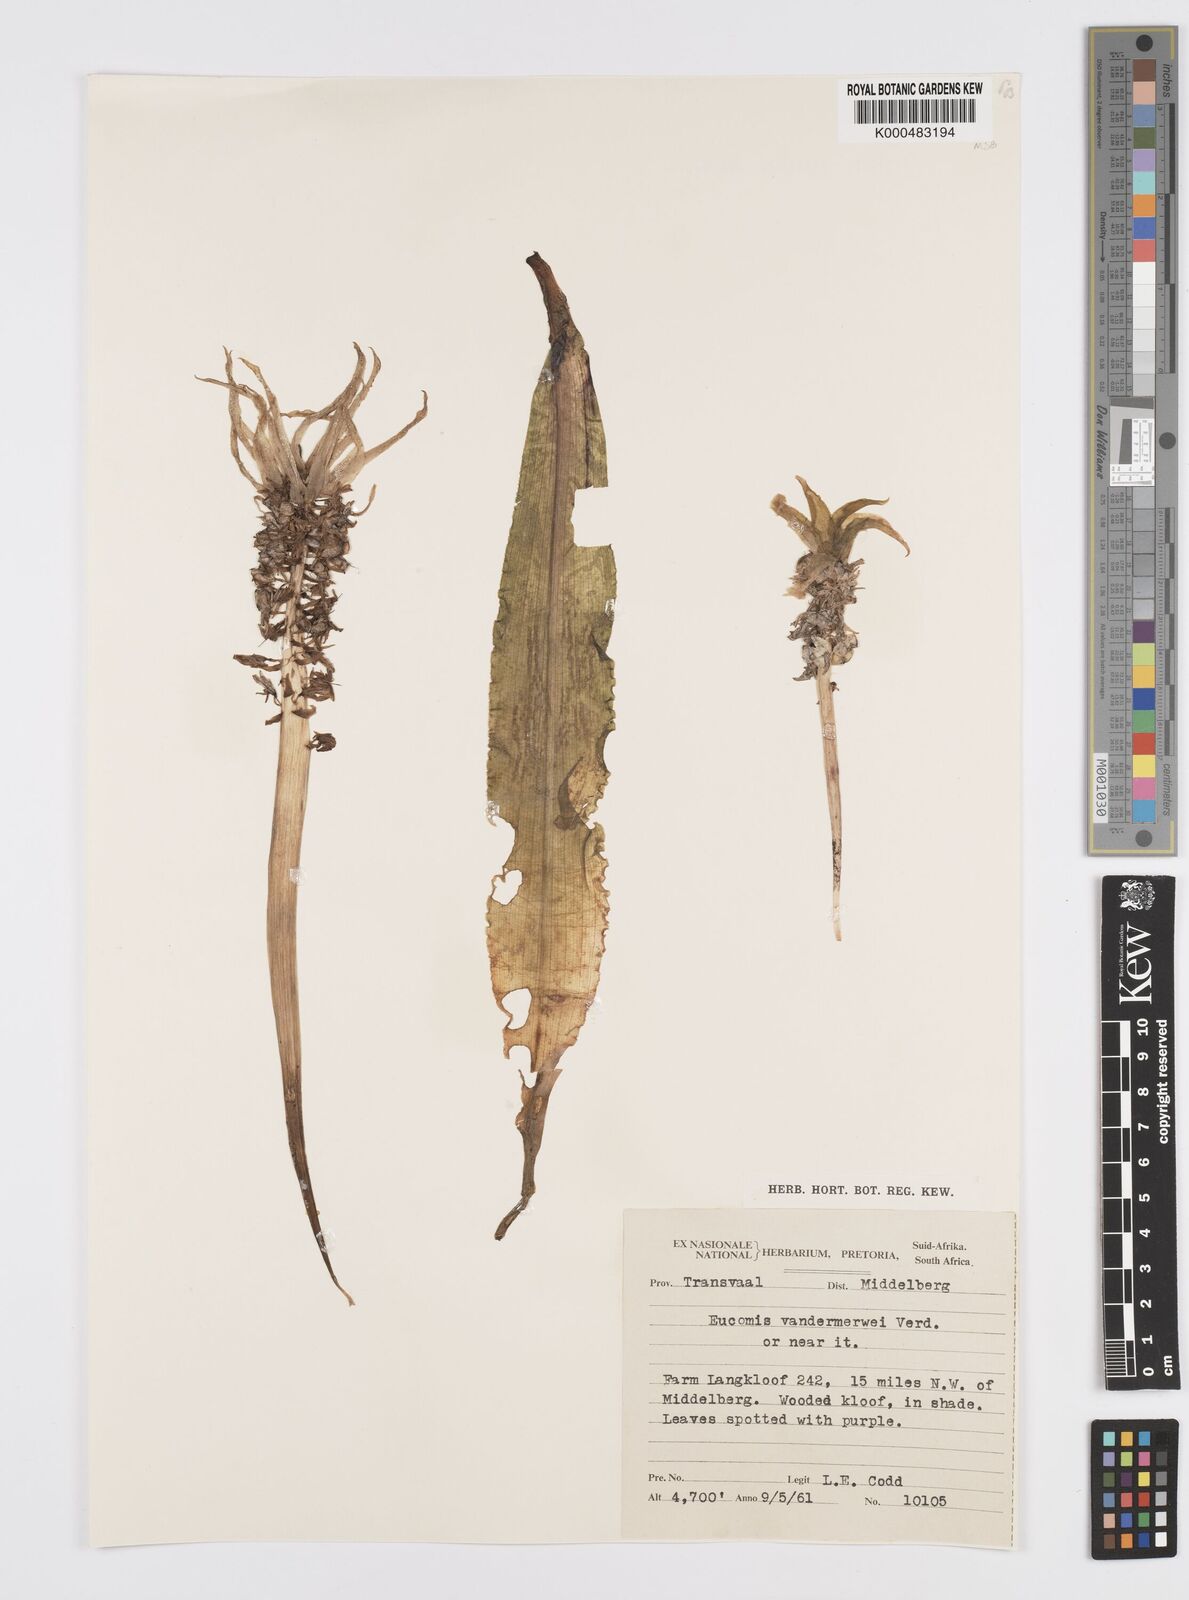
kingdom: Plantae
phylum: Tracheophyta
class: Liliopsida
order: Asparagales
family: Asparagaceae
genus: Eucomis
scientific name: Eucomis vandermerwei
